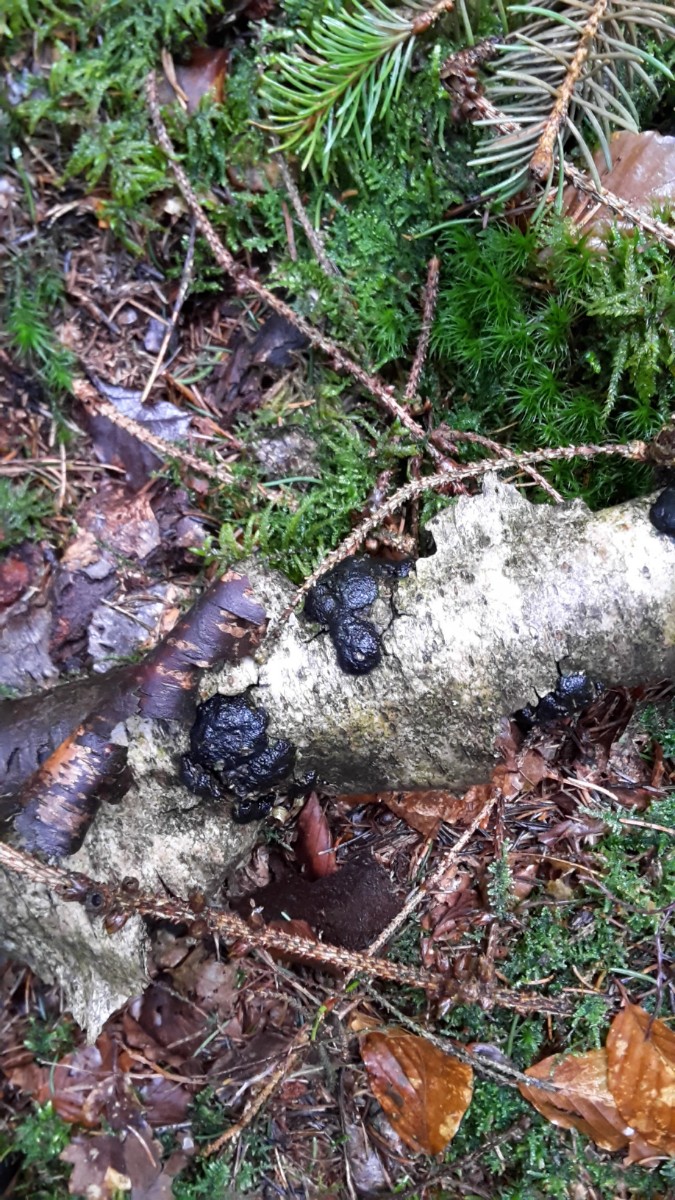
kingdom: Fungi
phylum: Ascomycota
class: Sordariomycetes
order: Xylariales
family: Hypoxylaceae
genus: Jackrogersella
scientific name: Jackrogersella multiformis
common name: foranderlig kulbær
